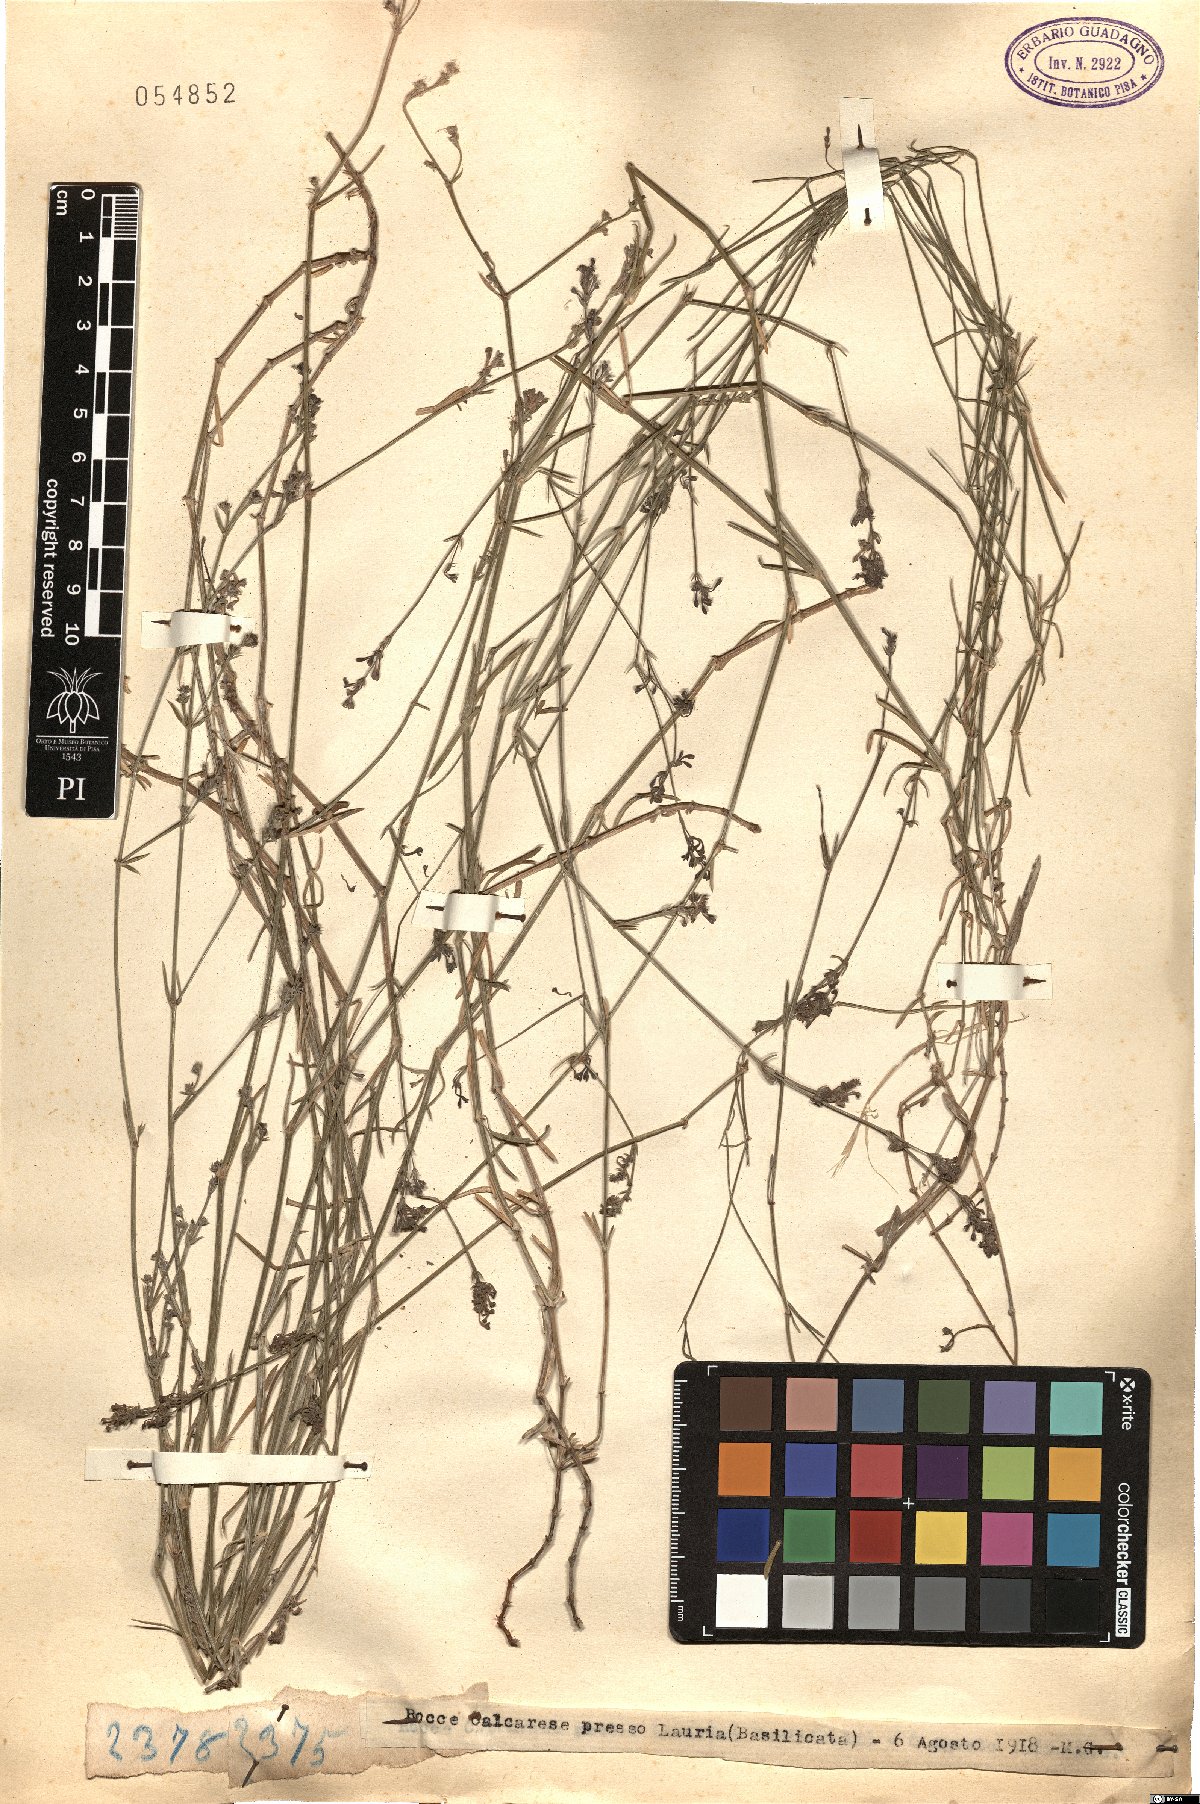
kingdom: Plantae
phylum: Tracheophyta
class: Magnoliopsida
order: Gentianales
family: Rubiaceae
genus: Asperula
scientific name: Asperula
